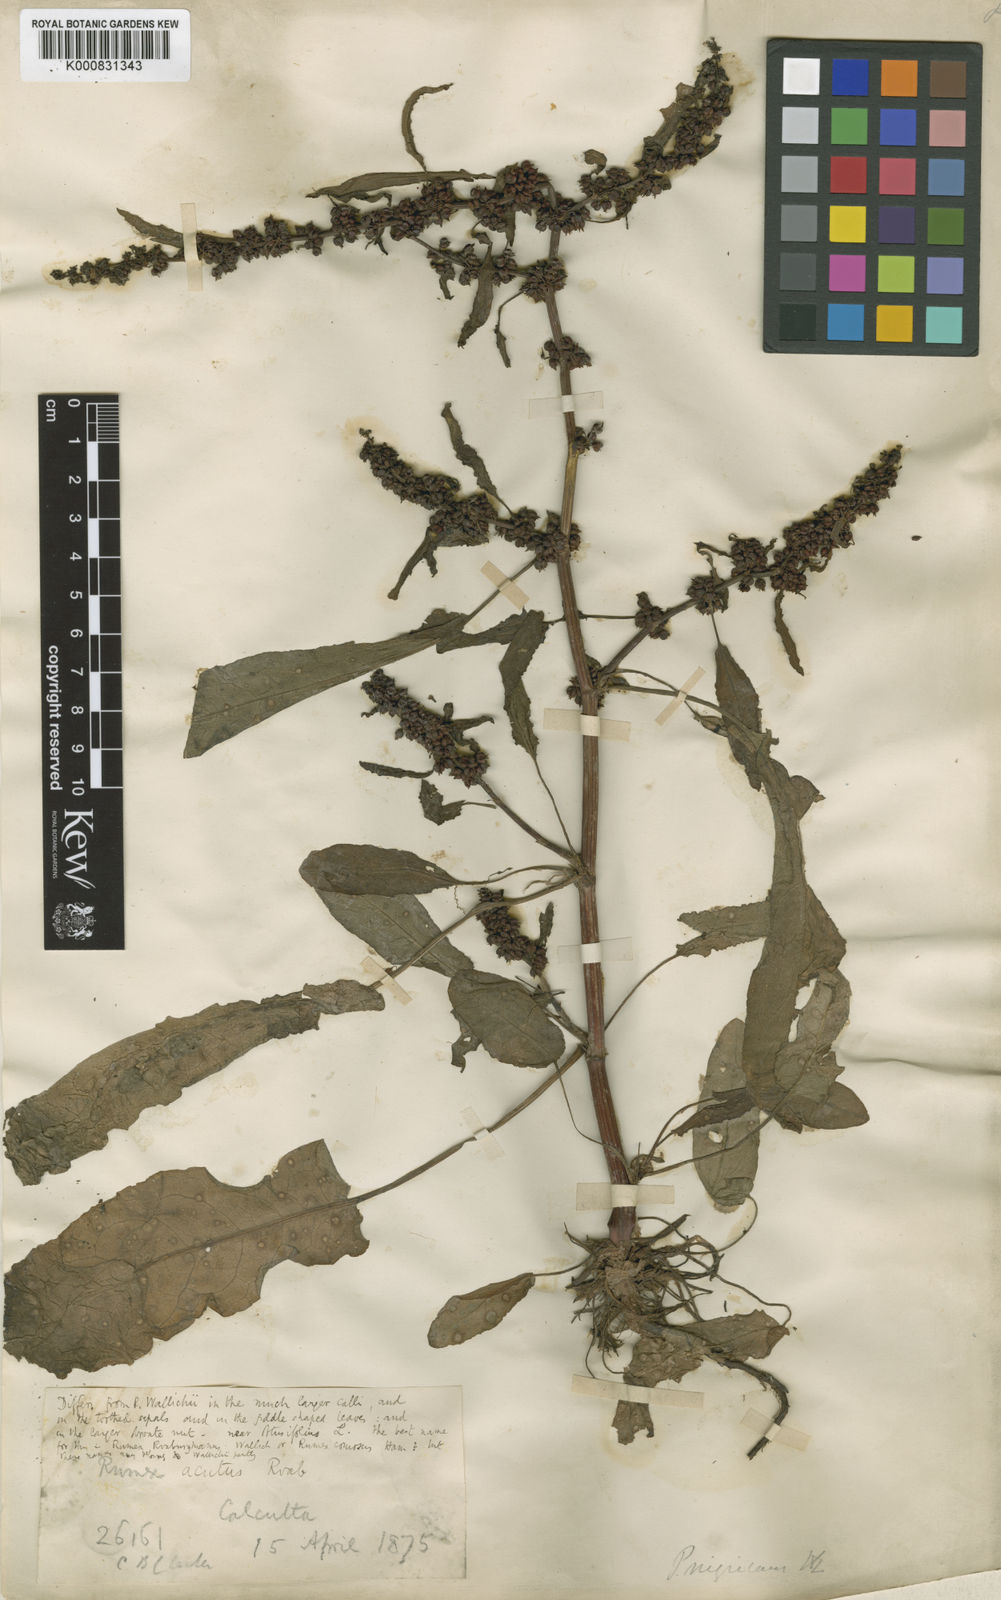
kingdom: Plantae
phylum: Tracheophyta
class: Magnoliopsida
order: Caryophyllales
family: Polygonaceae
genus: Rumex
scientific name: Rumex dentatus
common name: Toothed dock
